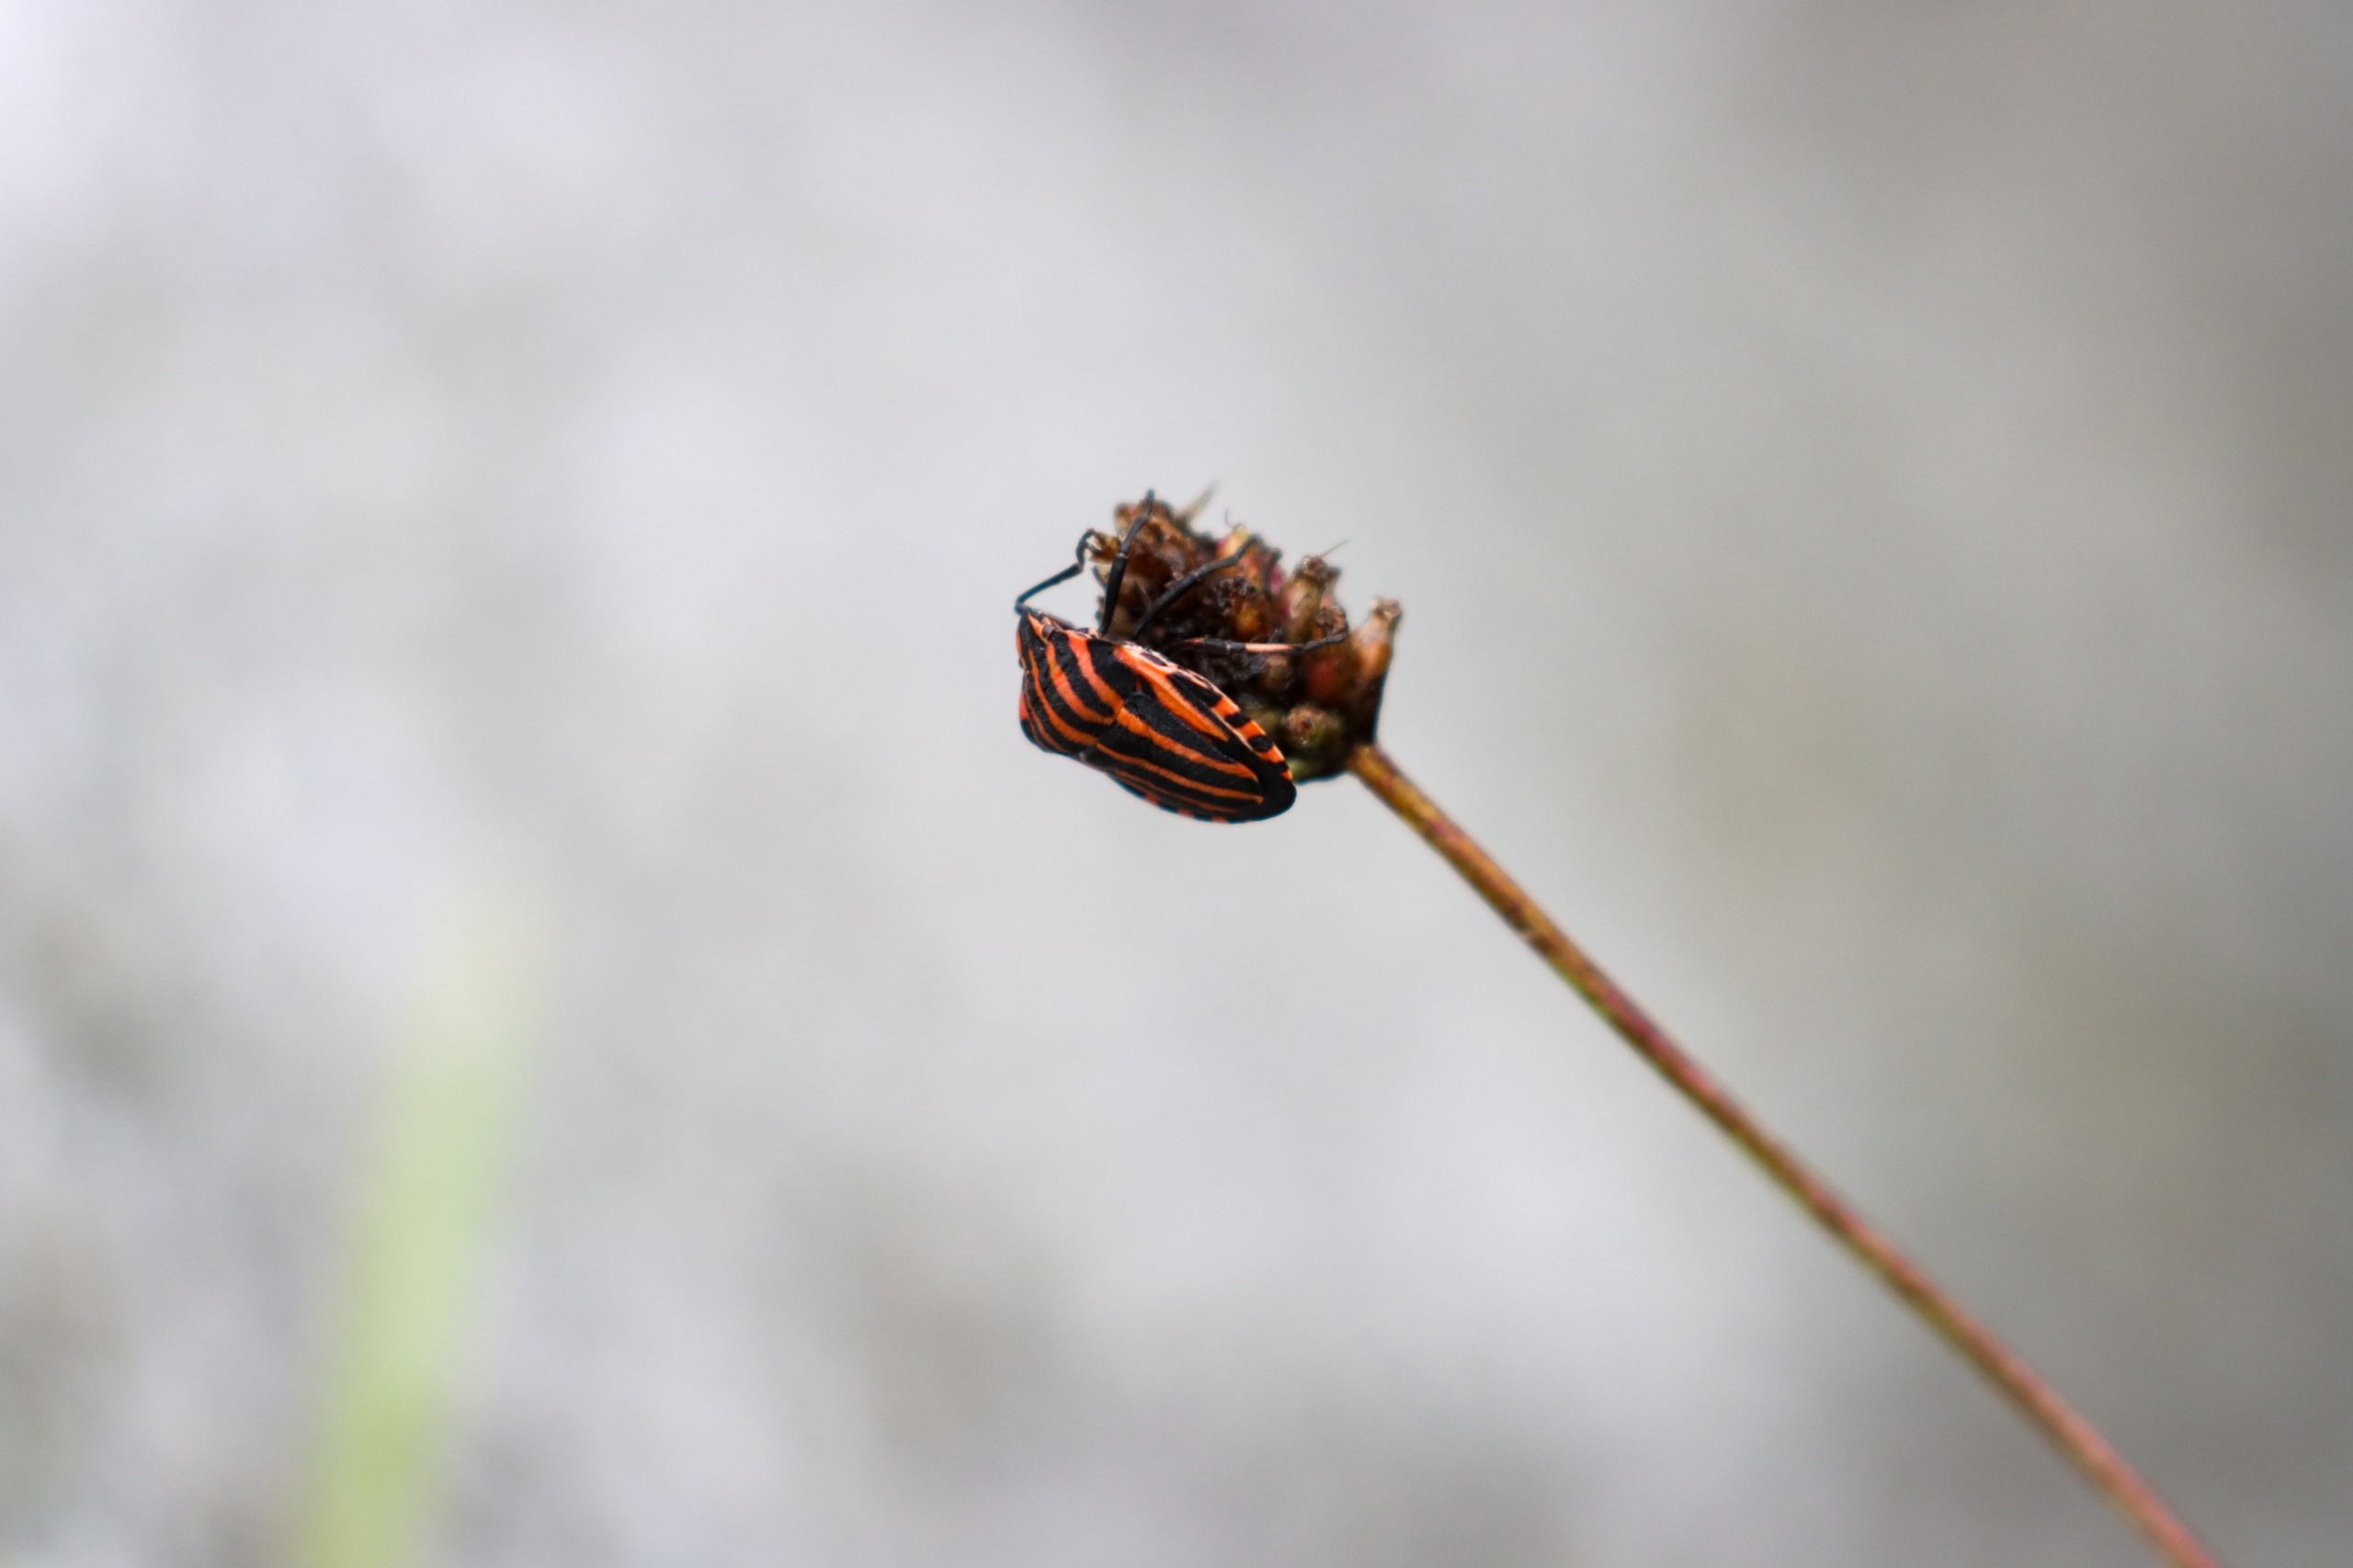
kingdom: Animalia
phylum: Arthropoda
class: Insecta
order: Hemiptera
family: Pentatomidae
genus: Graphosoma
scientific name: Graphosoma italicum
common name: Stribetæge
